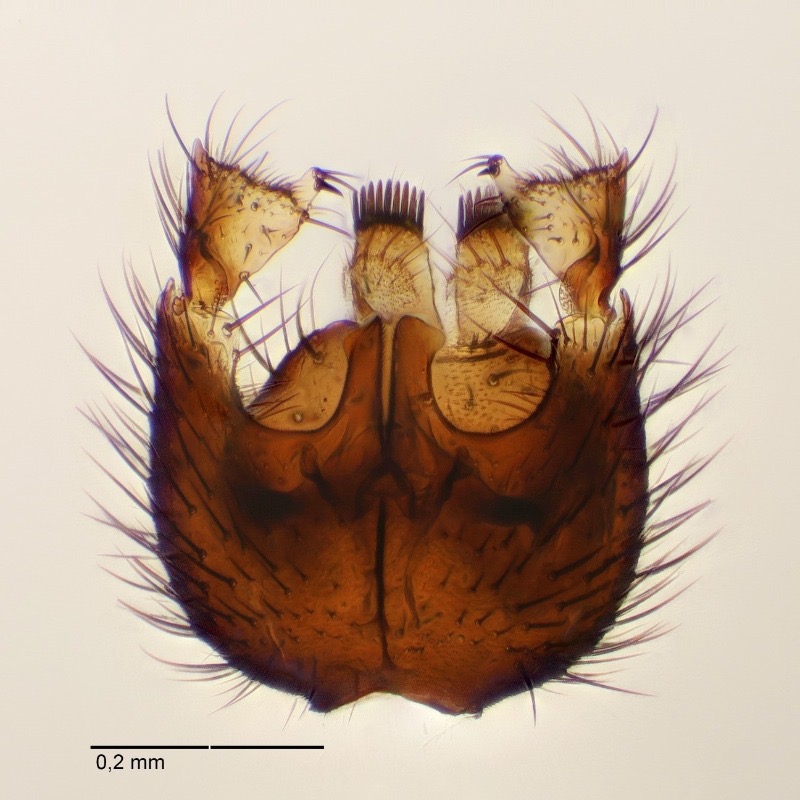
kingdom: Animalia
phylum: Arthropoda
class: Insecta
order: Diptera
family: Mycetophilidae
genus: Boletina
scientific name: Boletina brevicornis
